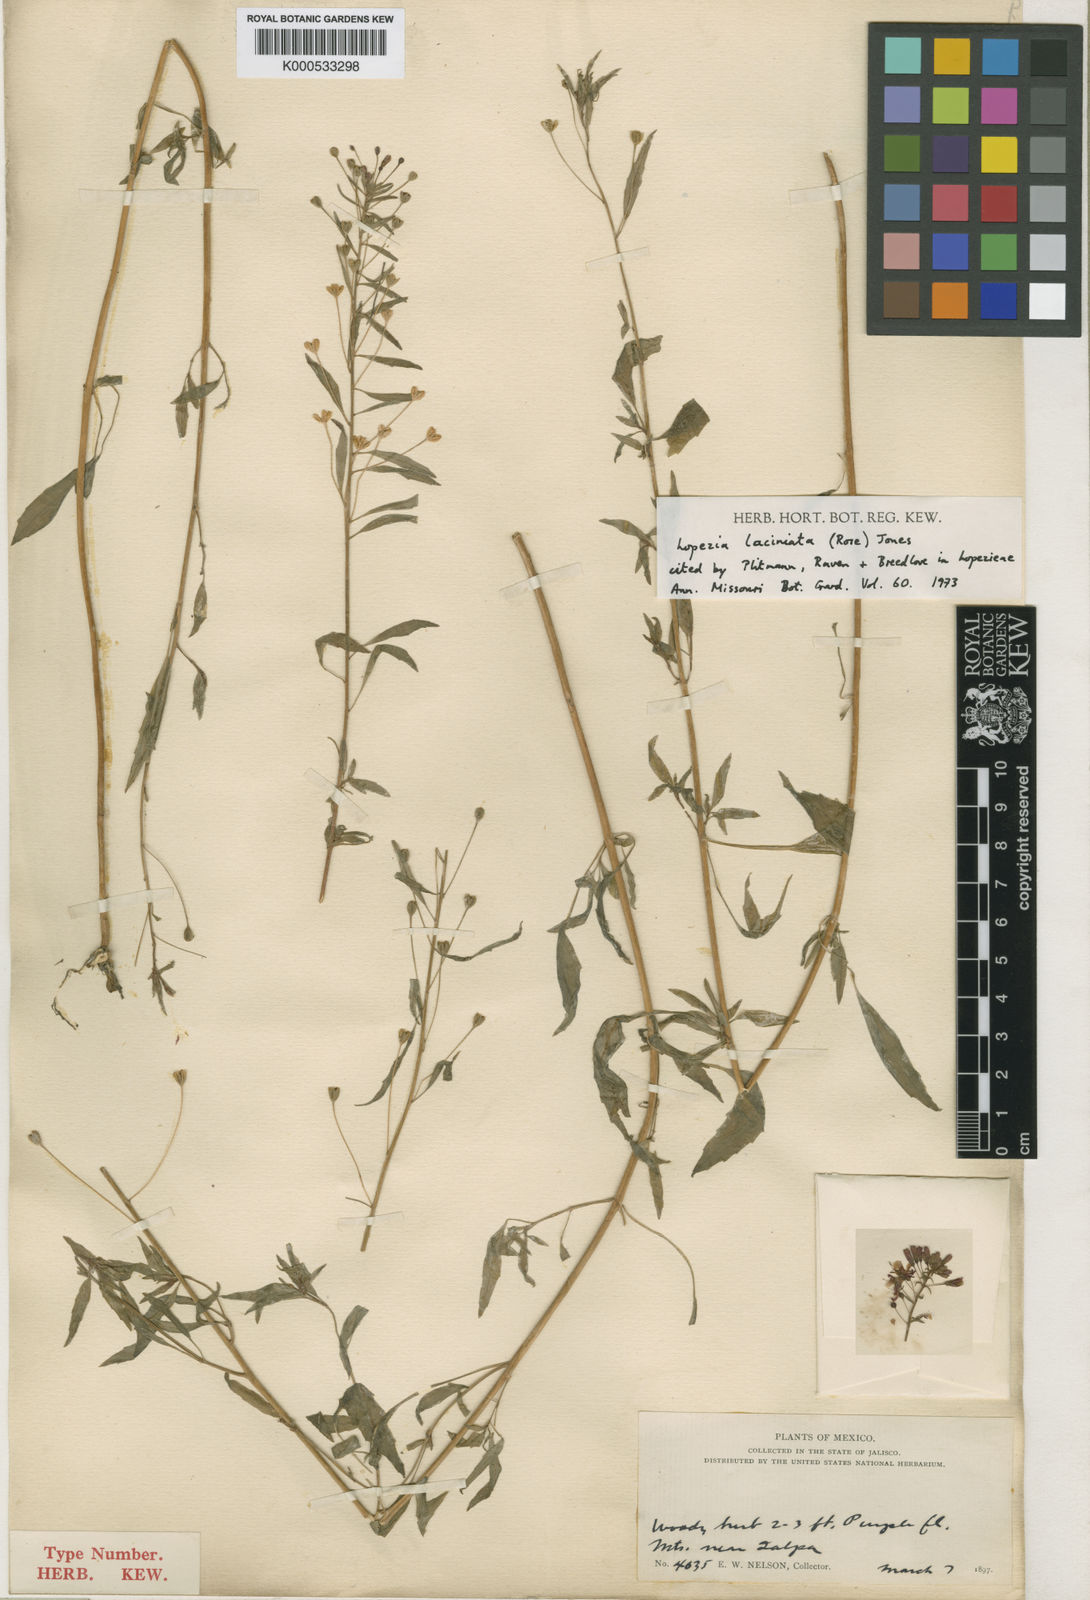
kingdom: Plantae
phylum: Tracheophyta
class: Magnoliopsida
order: Myrtales
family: Onagraceae
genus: Lopezia
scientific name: Lopezia laciniata
